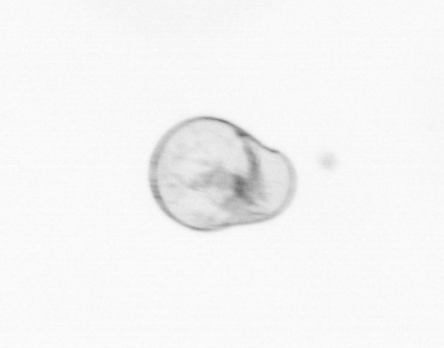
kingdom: Chromista
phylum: Myzozoa
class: Dinophyceae
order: Noctilucales
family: Noctilucaceae
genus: Noctiluca
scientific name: Noctiluca scintillans
